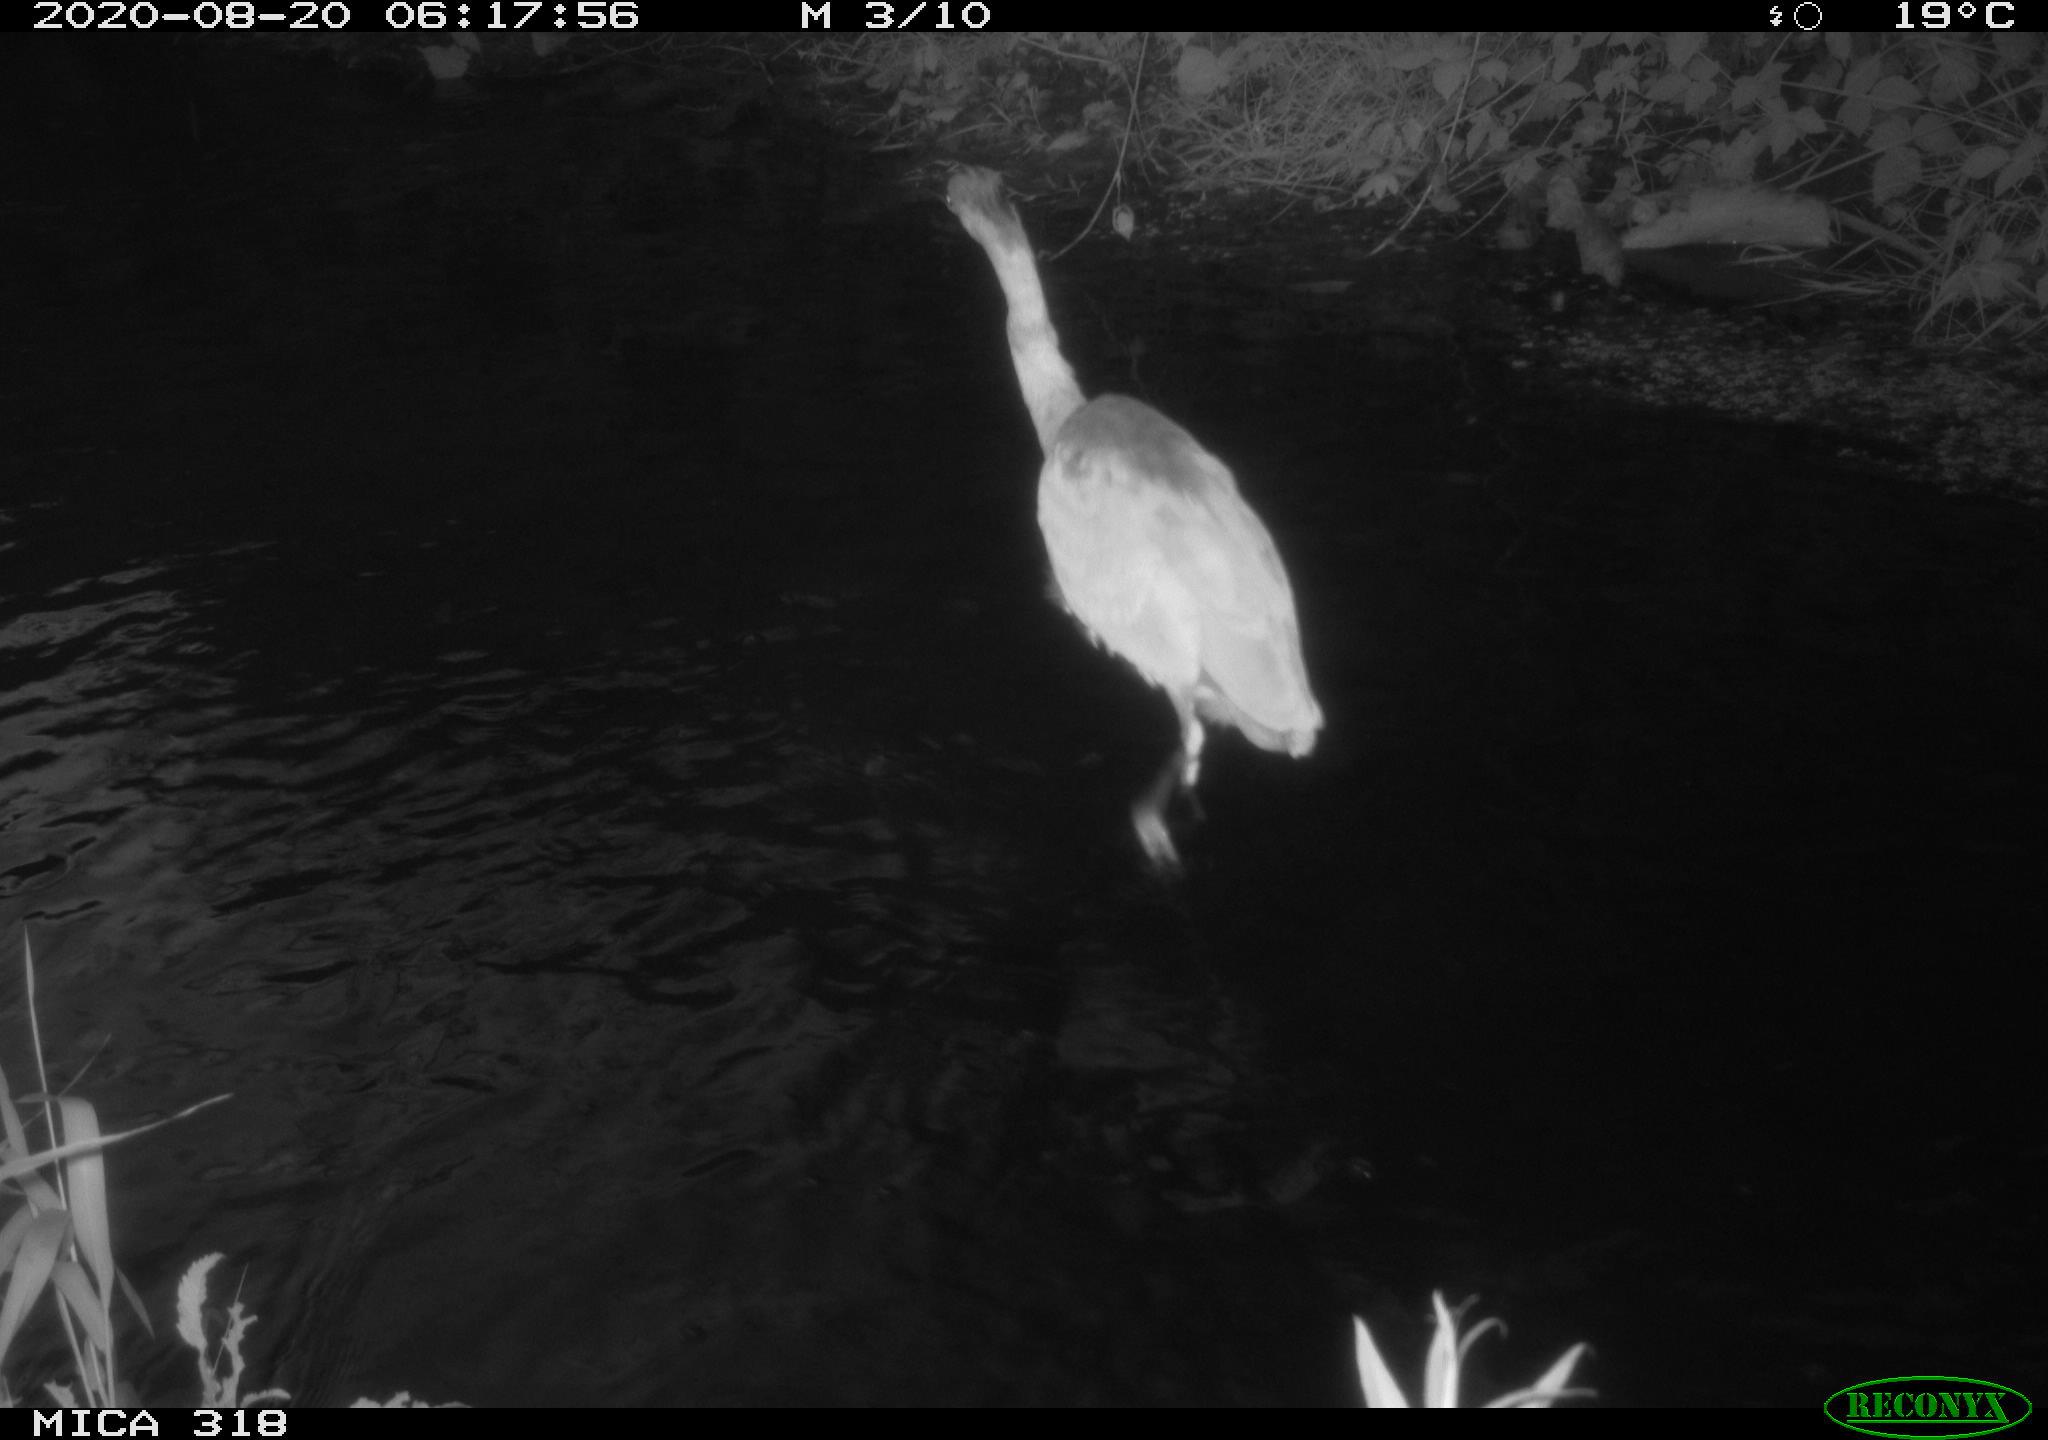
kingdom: Animalia
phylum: Chordata
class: Aves
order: Pelecaniformes
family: Ardeidae
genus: Ardea
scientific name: Ardea cinerea
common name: Grey heron
